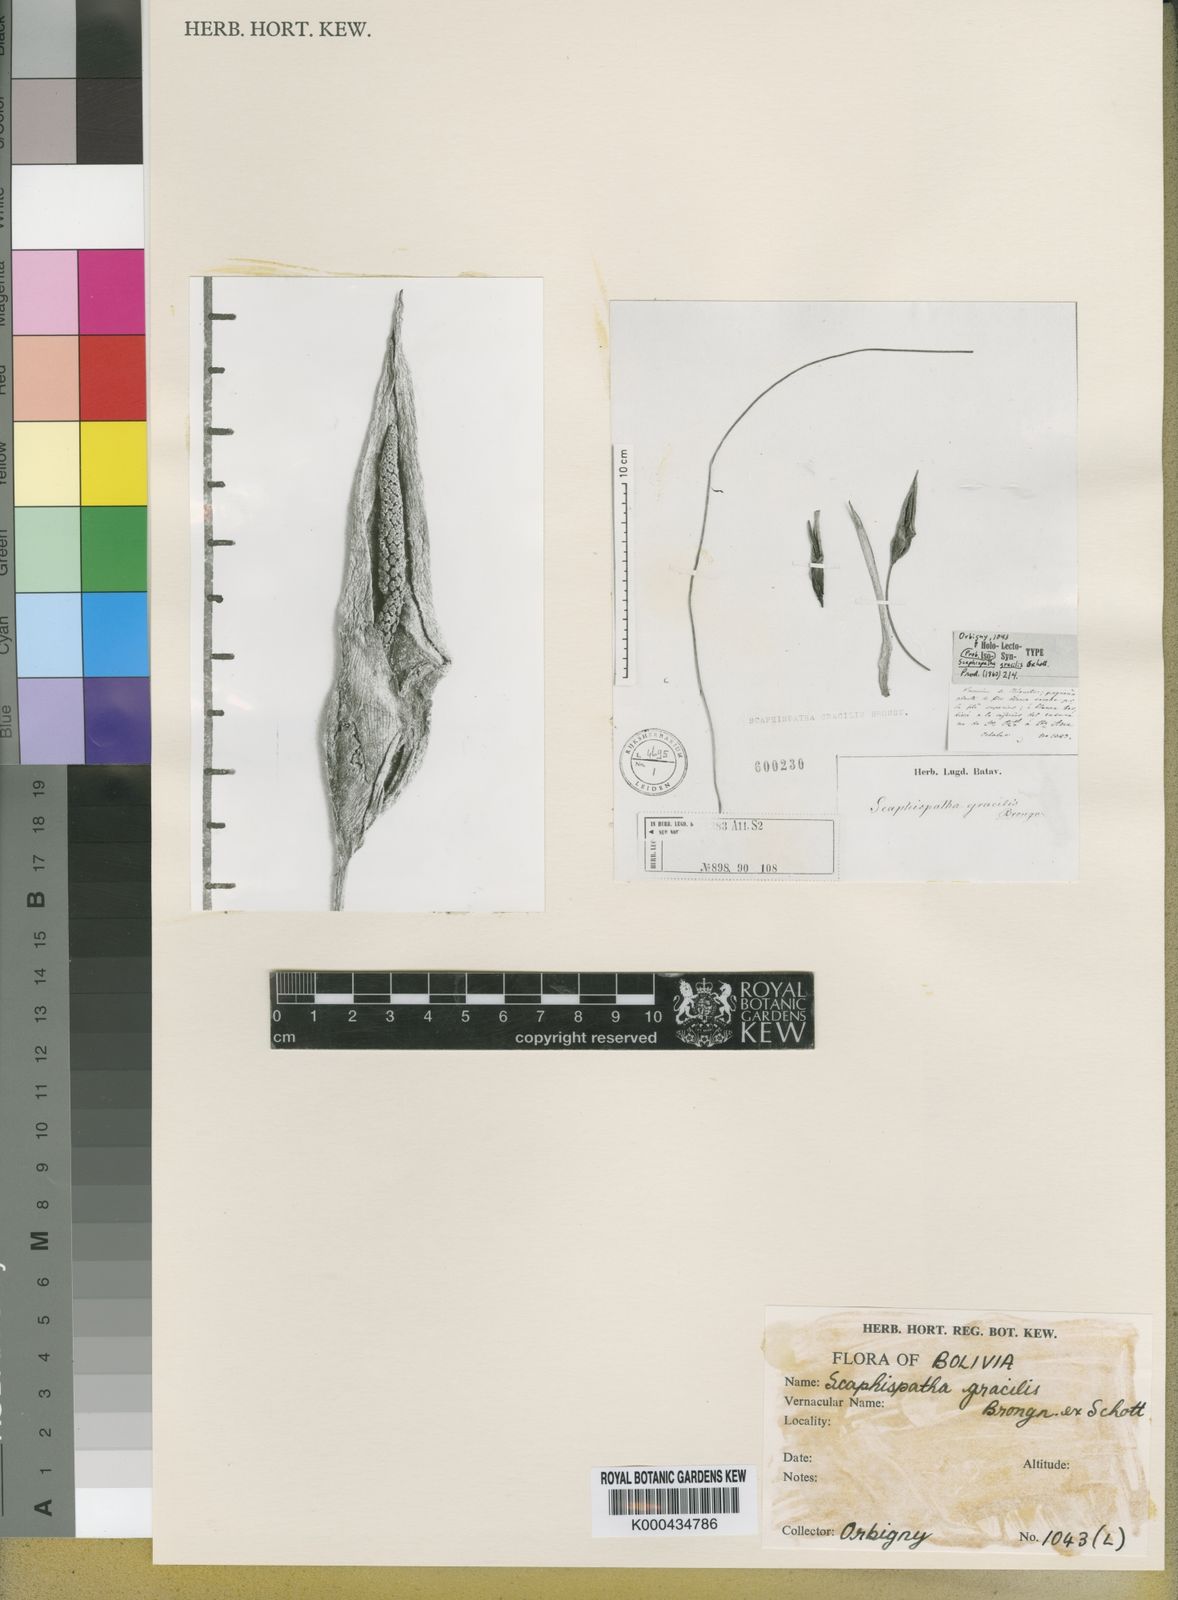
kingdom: Plantae
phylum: Tracheophyta
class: Liliopsida
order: Alismatales
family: Araceae
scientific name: Araceae
